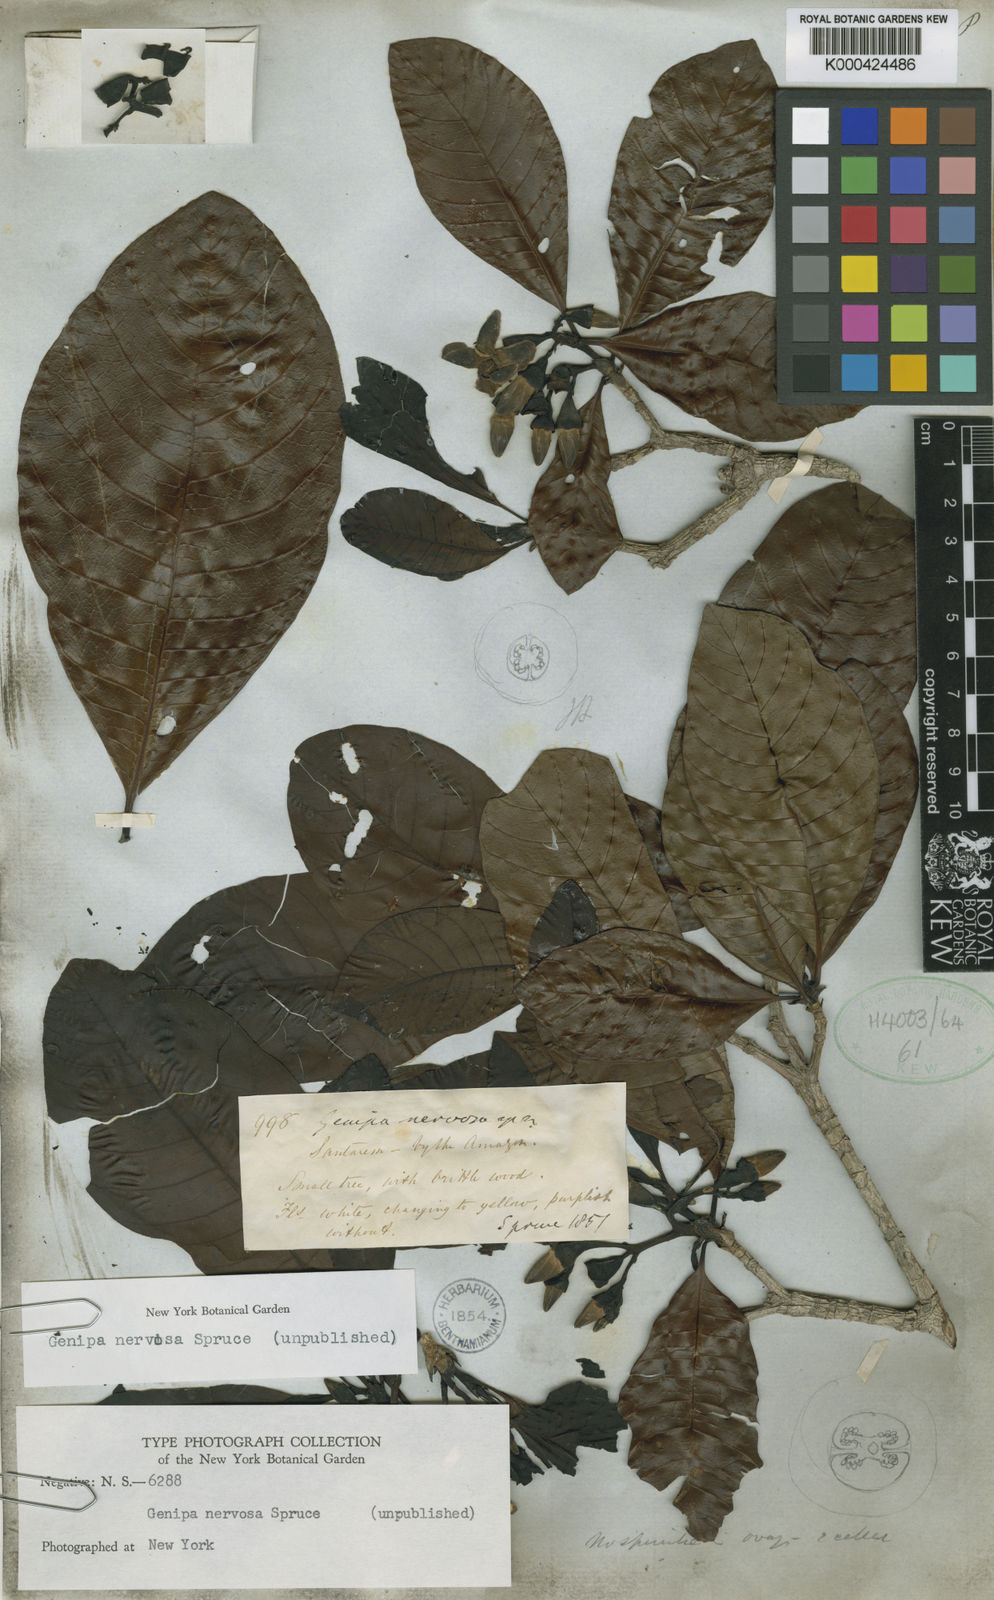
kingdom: Plantae
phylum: Tracheophyta
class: Magnoliopsida
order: Gentianales
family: Rubiaceae
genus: Genipa
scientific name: Genipa americana
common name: Genipap
